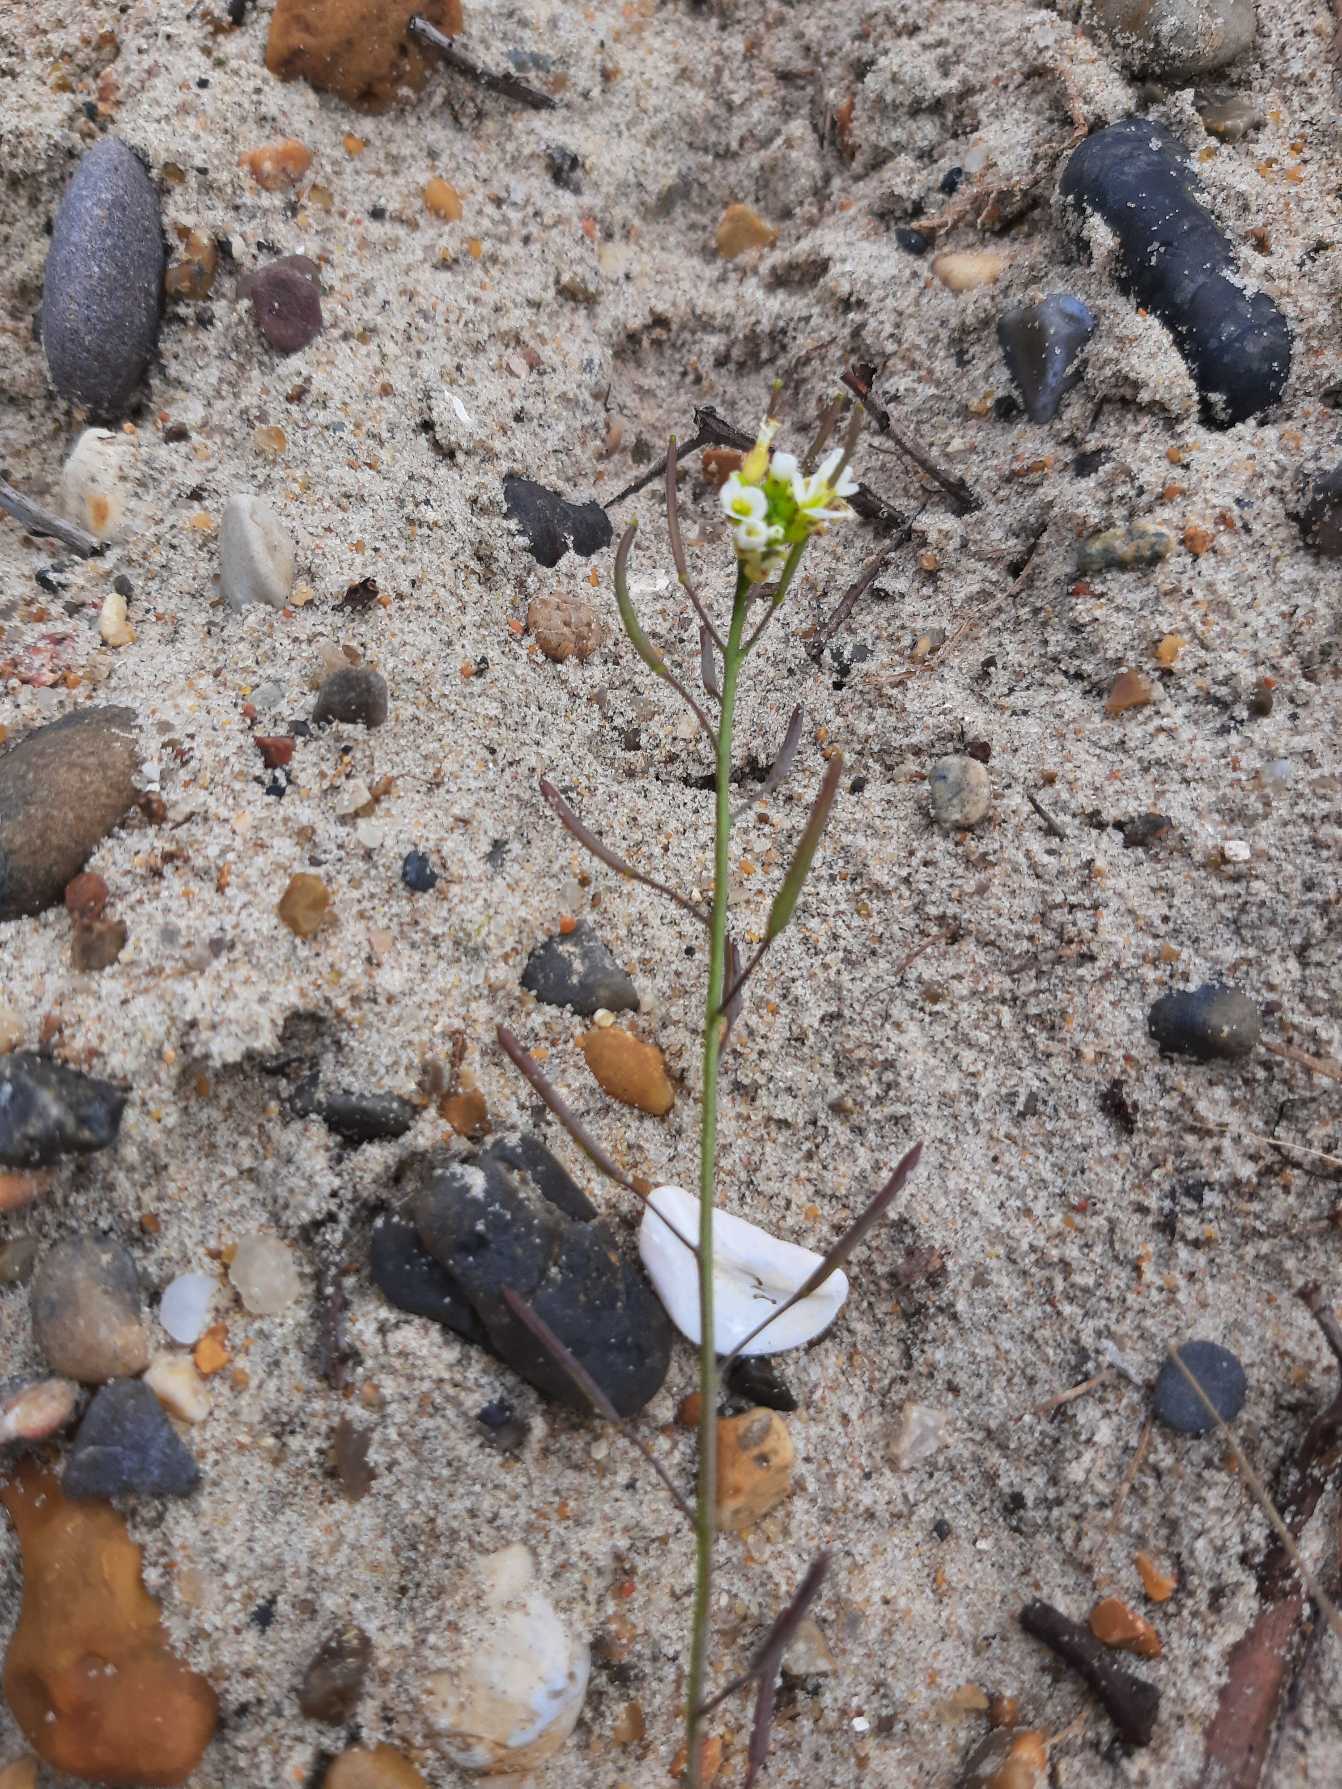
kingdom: Plantae
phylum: Tracheophyta
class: Magnoliopsida
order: Brassicales
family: Brassicaceae
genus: Arabidopsis
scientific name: Arabidopsis thaliana
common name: Almindelig gåsemad
